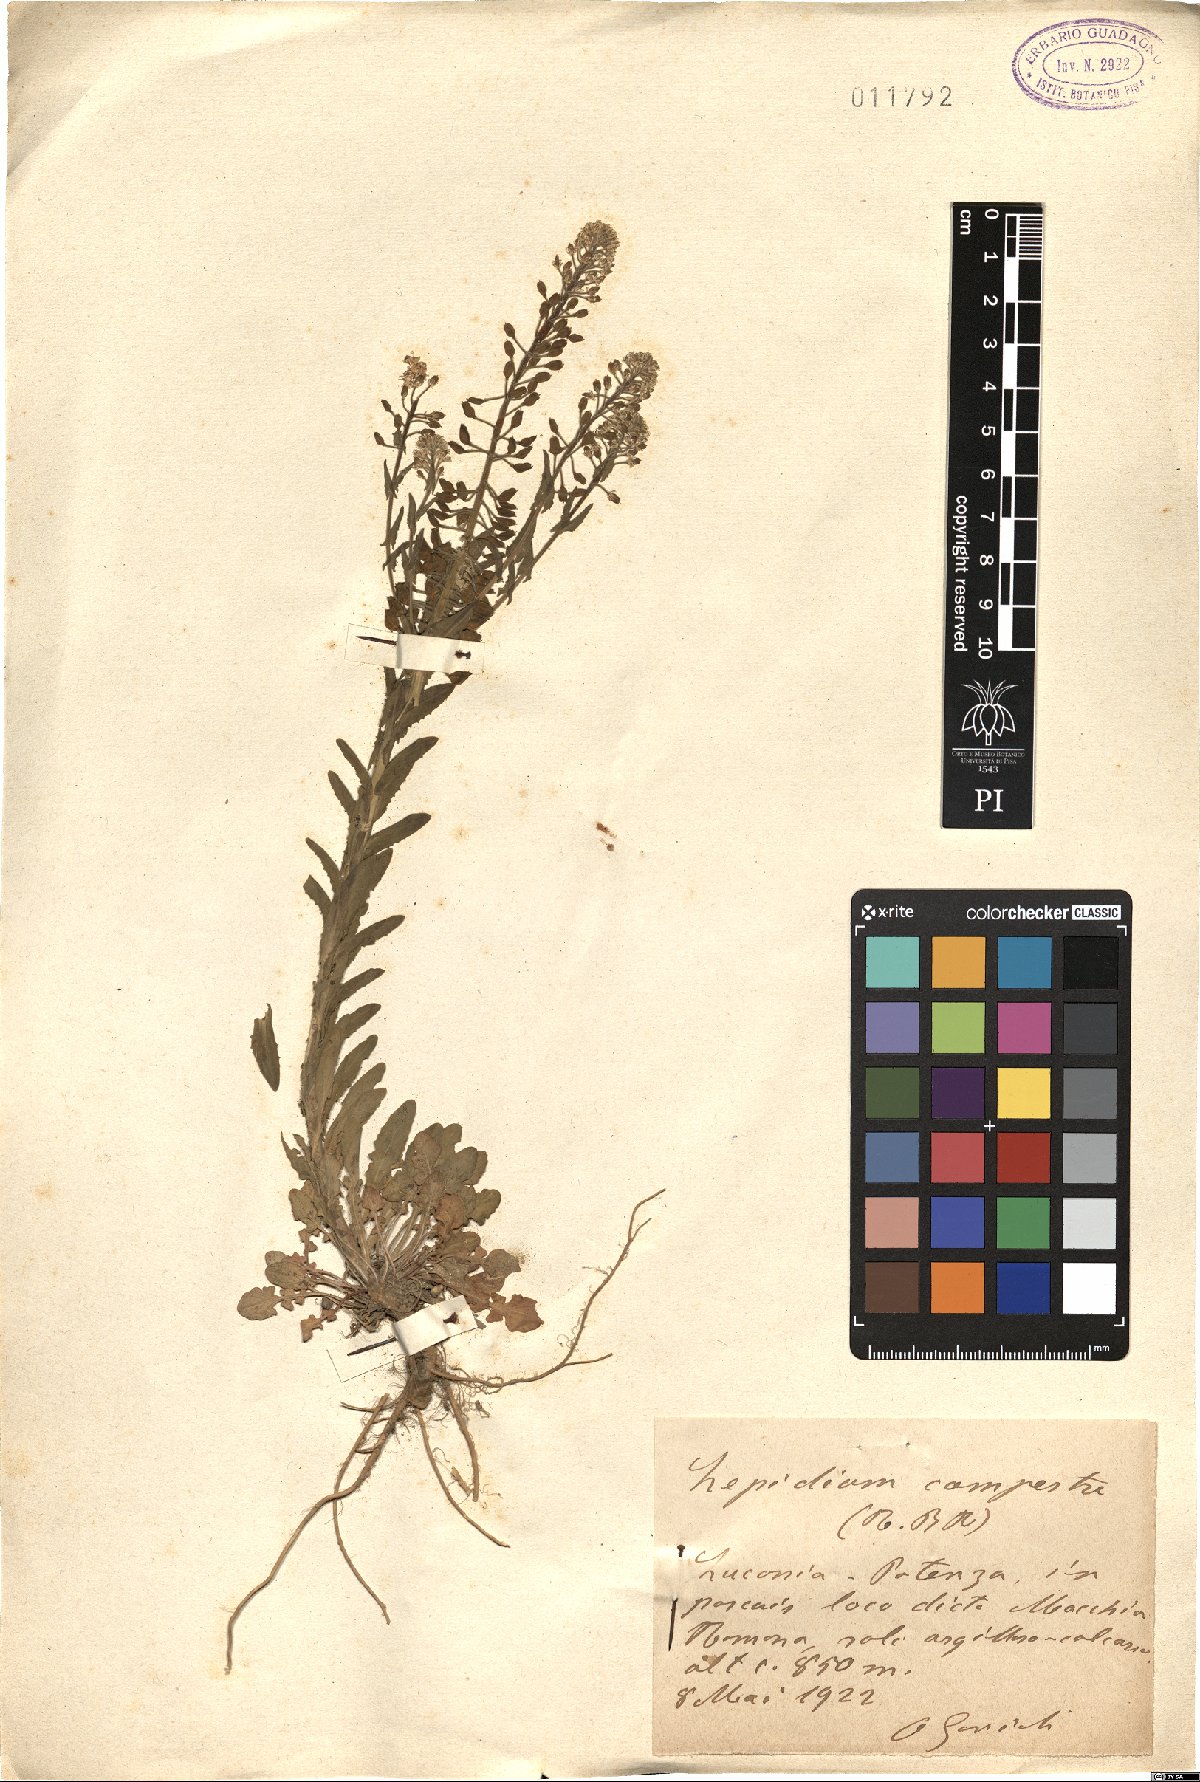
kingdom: Plantae
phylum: Tracheophyta
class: Magnoliopsida
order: Brassicales
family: Brassicaceae
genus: Lepidium
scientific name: Lepidium campestre
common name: Field pepperwort
